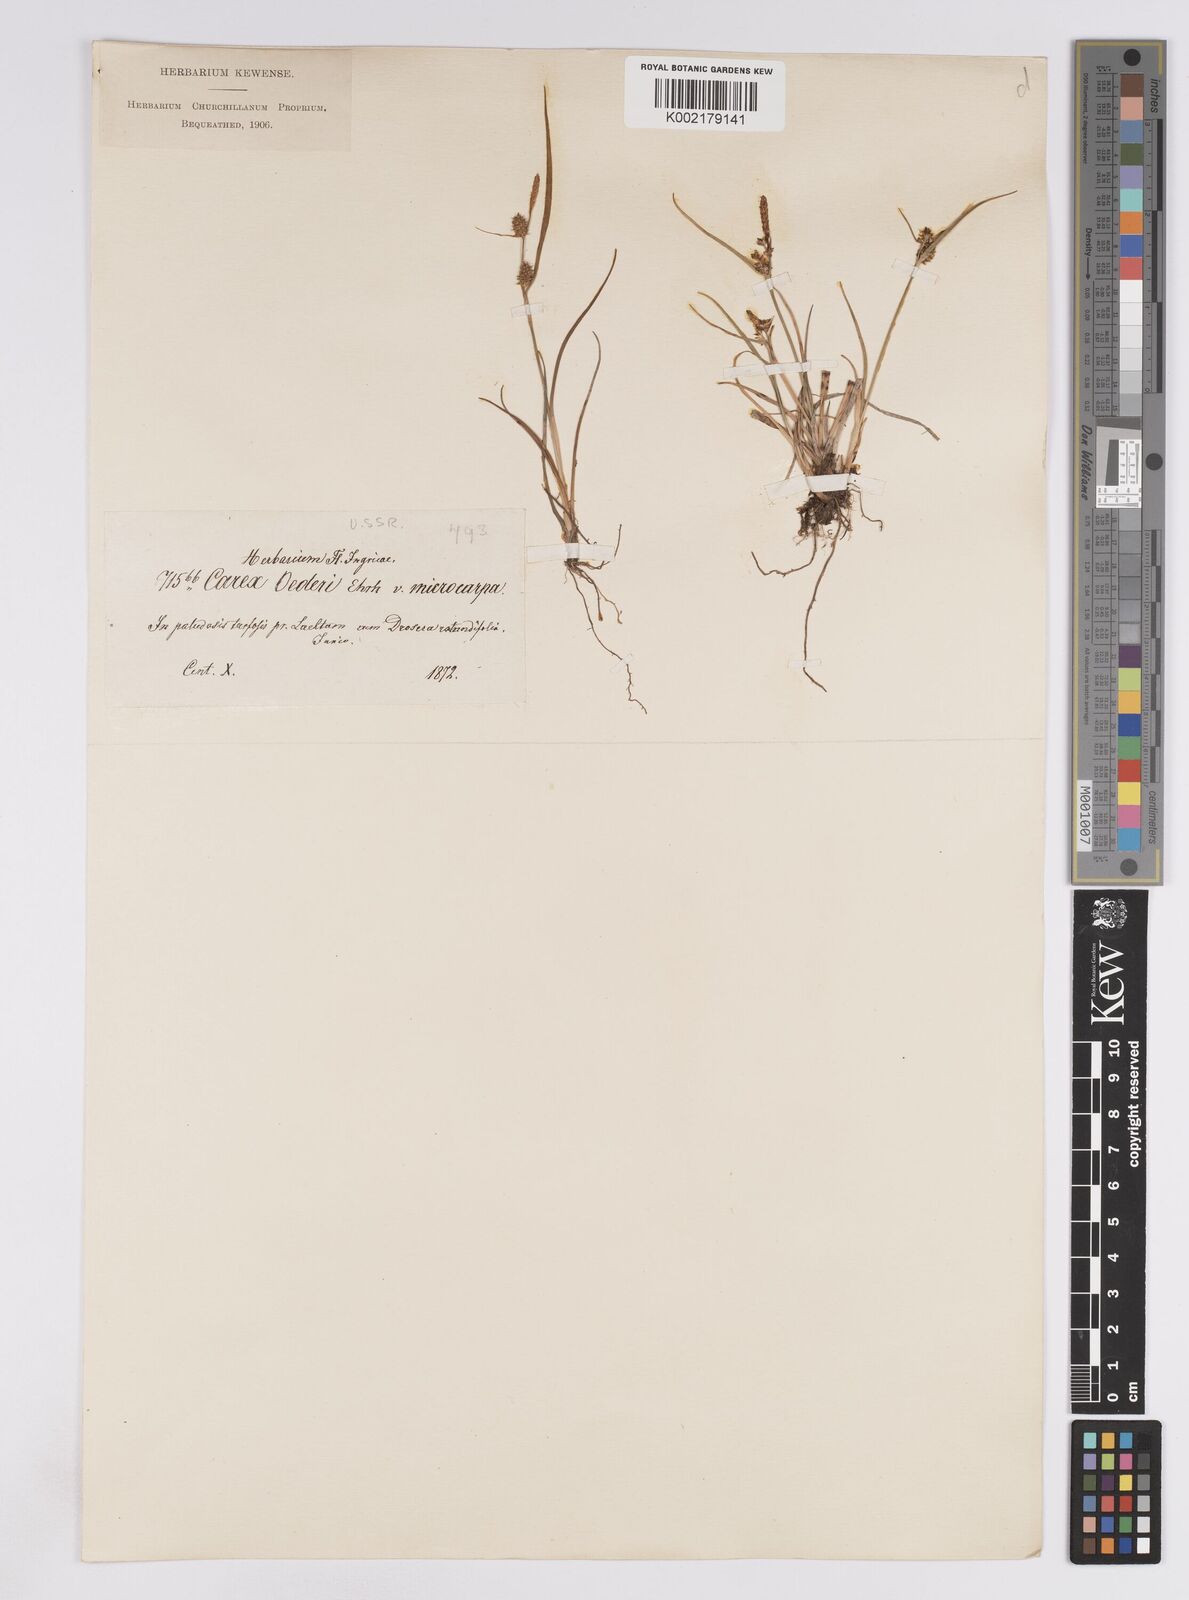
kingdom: Plantae
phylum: Tracheophyta
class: Liliopsida
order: Poales
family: Cyperaceae
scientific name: Cyperaceae
